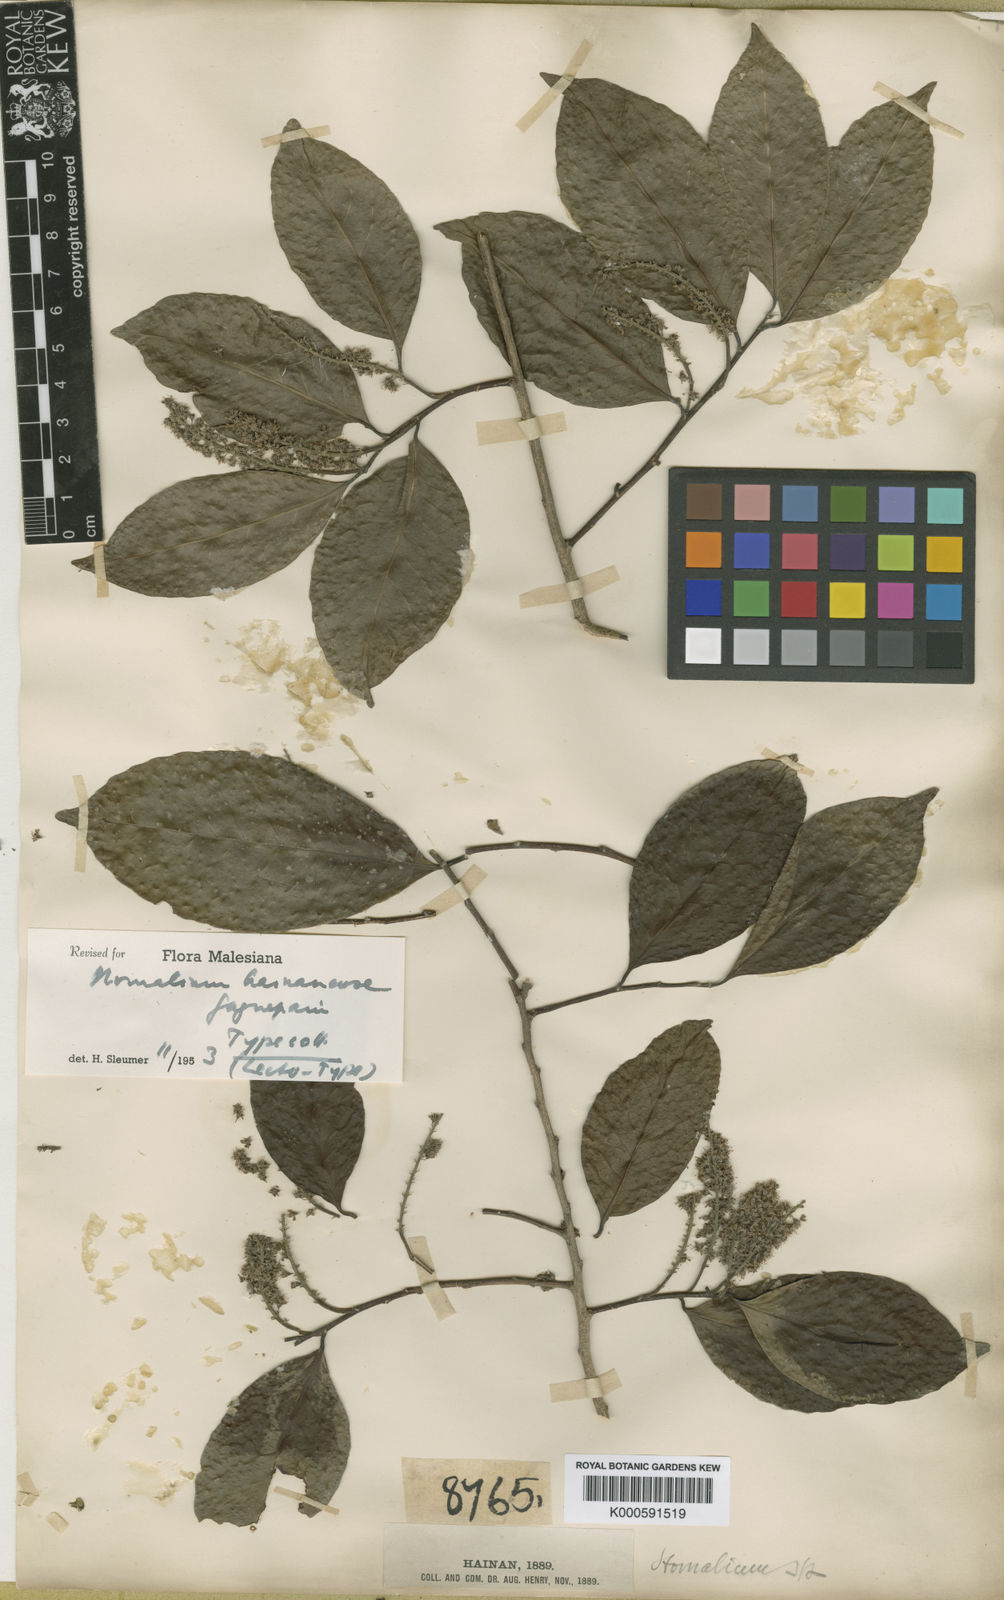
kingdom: Plantae
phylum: Tracheophyta
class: Magnoliopsida
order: Malpighiales
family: Salicaceae
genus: Homalium
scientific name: Homalium hainanense
